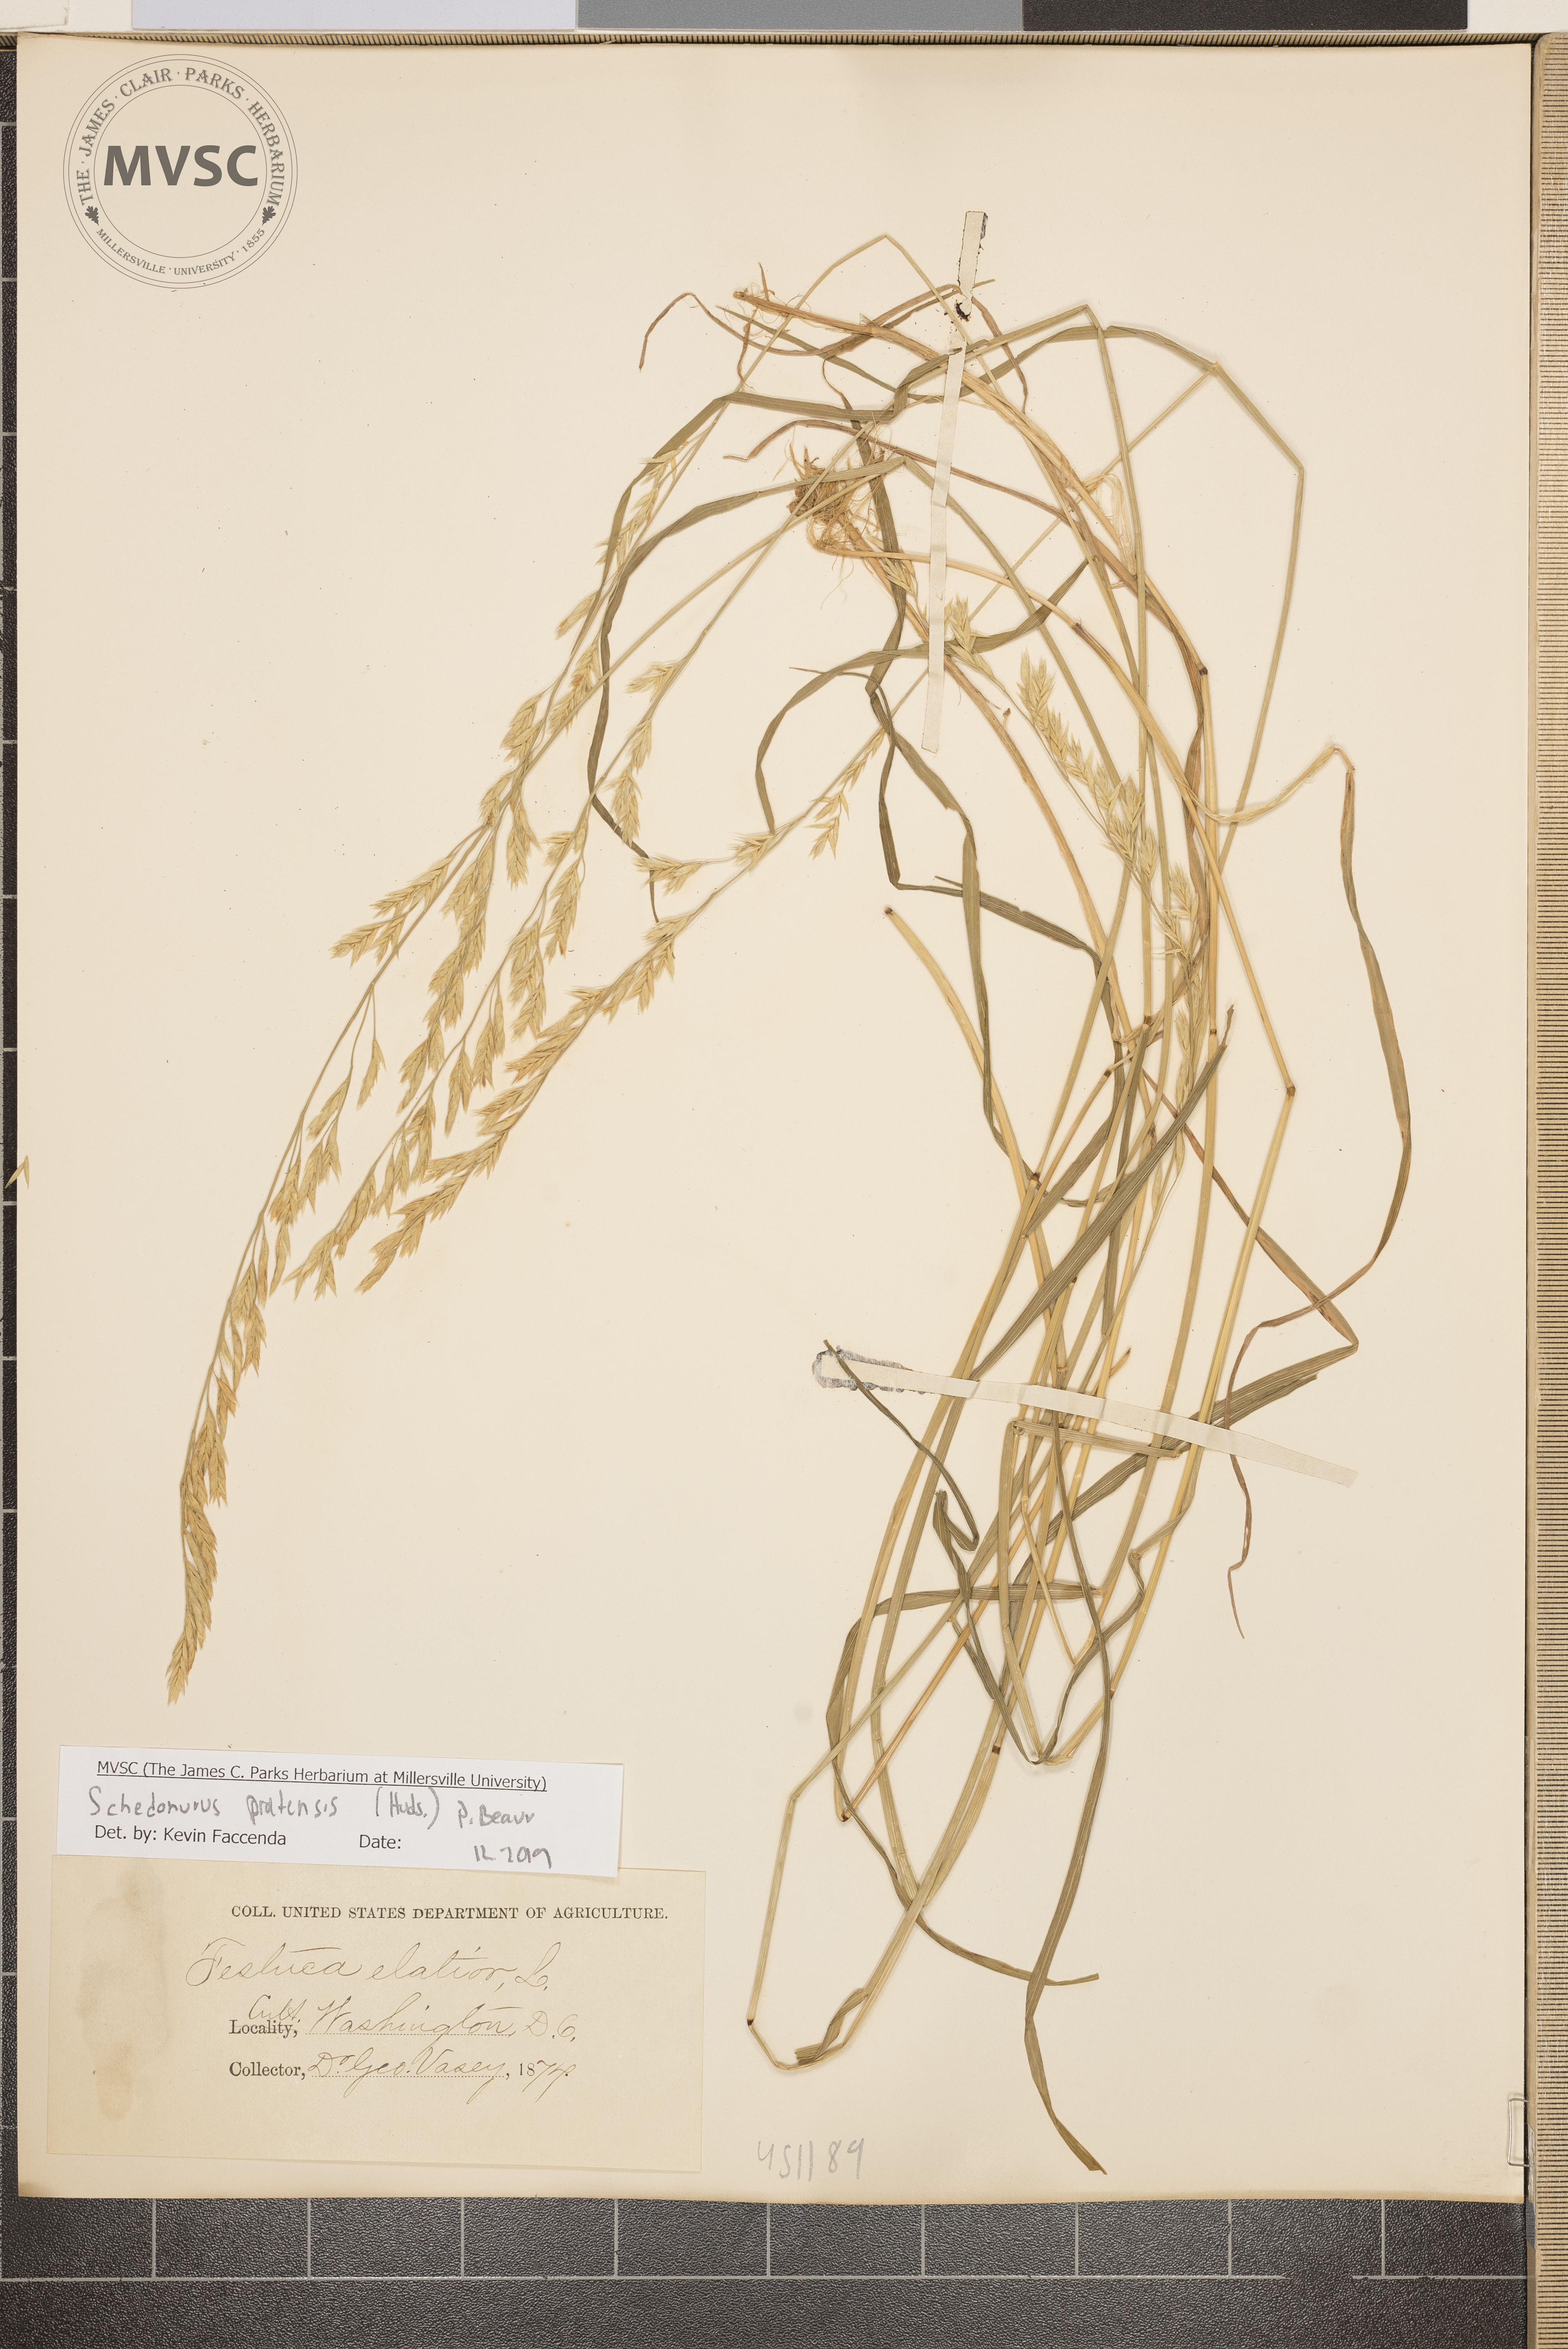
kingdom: Plantae
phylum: Tracheophyta
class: Liliopsida
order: Poales
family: Poaceae
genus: Lolium
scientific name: Lolium pratense
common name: Dover grass
